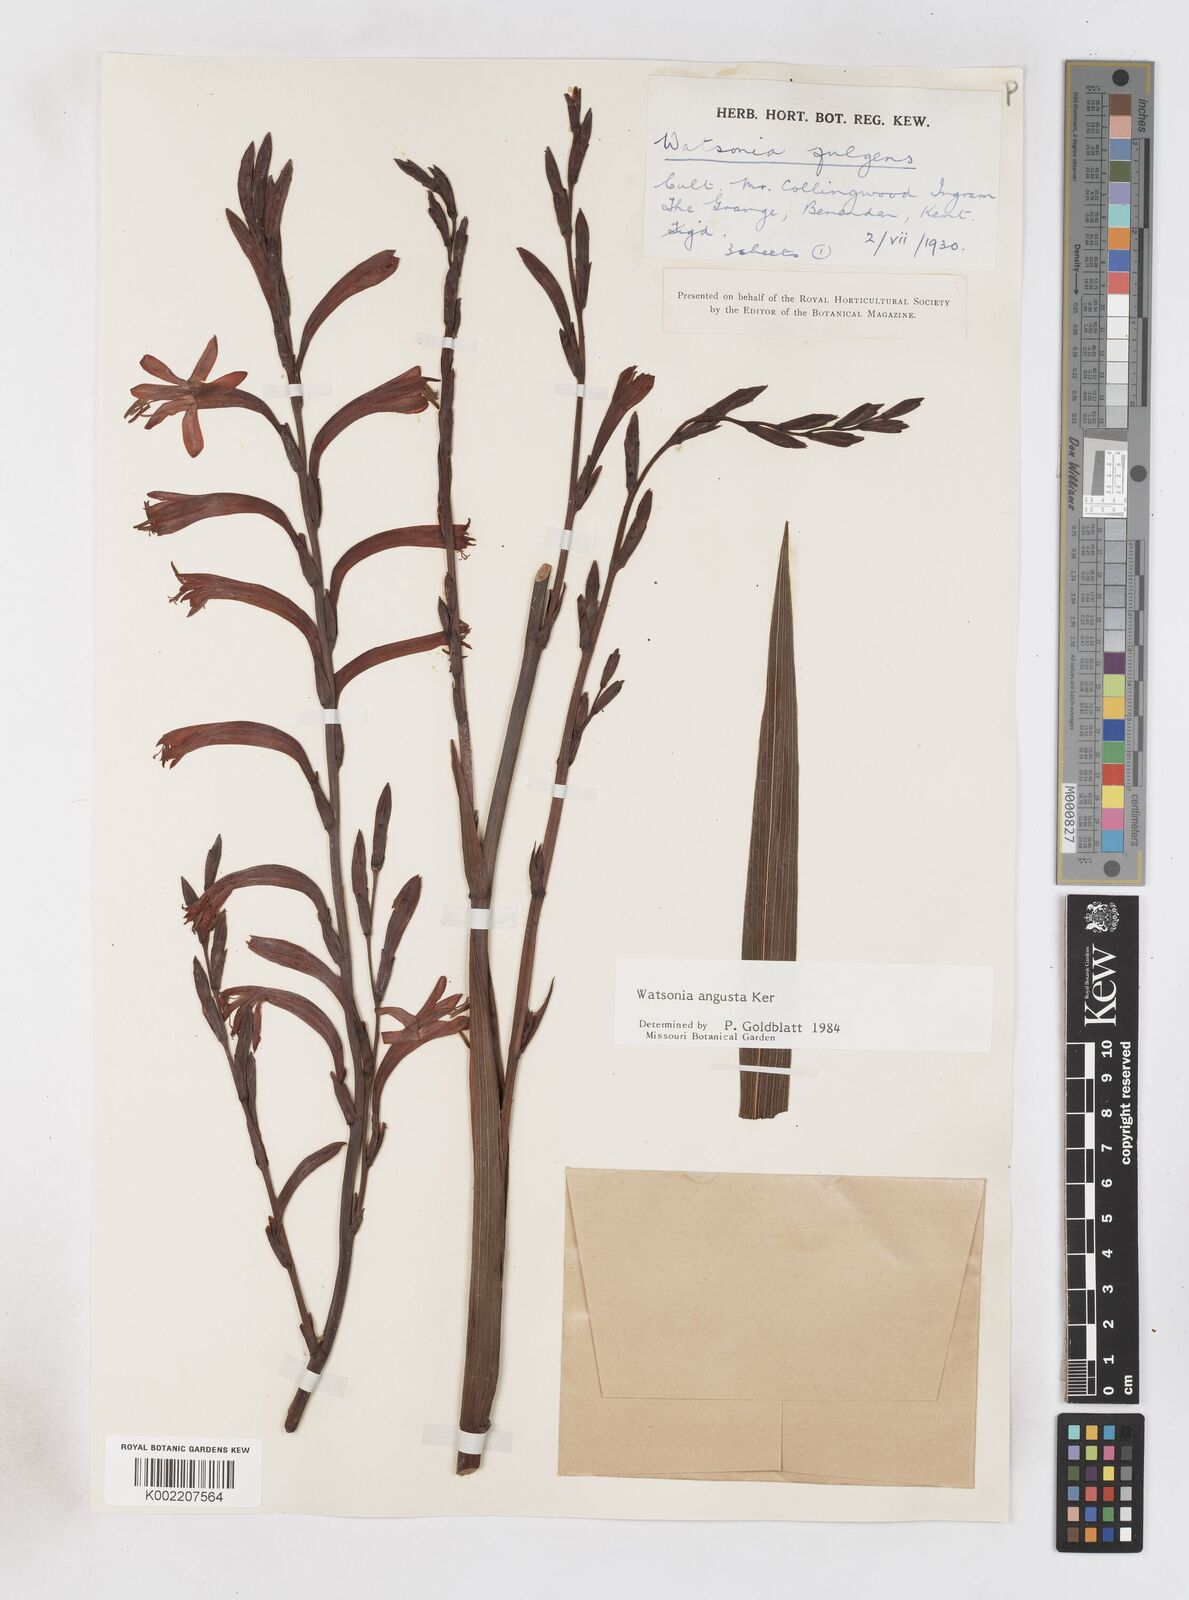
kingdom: Plantae
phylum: Tracheophyta
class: Liliopsida
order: Asparagales
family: Iridaceae
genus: Watsonia
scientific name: Watsonia angusta
